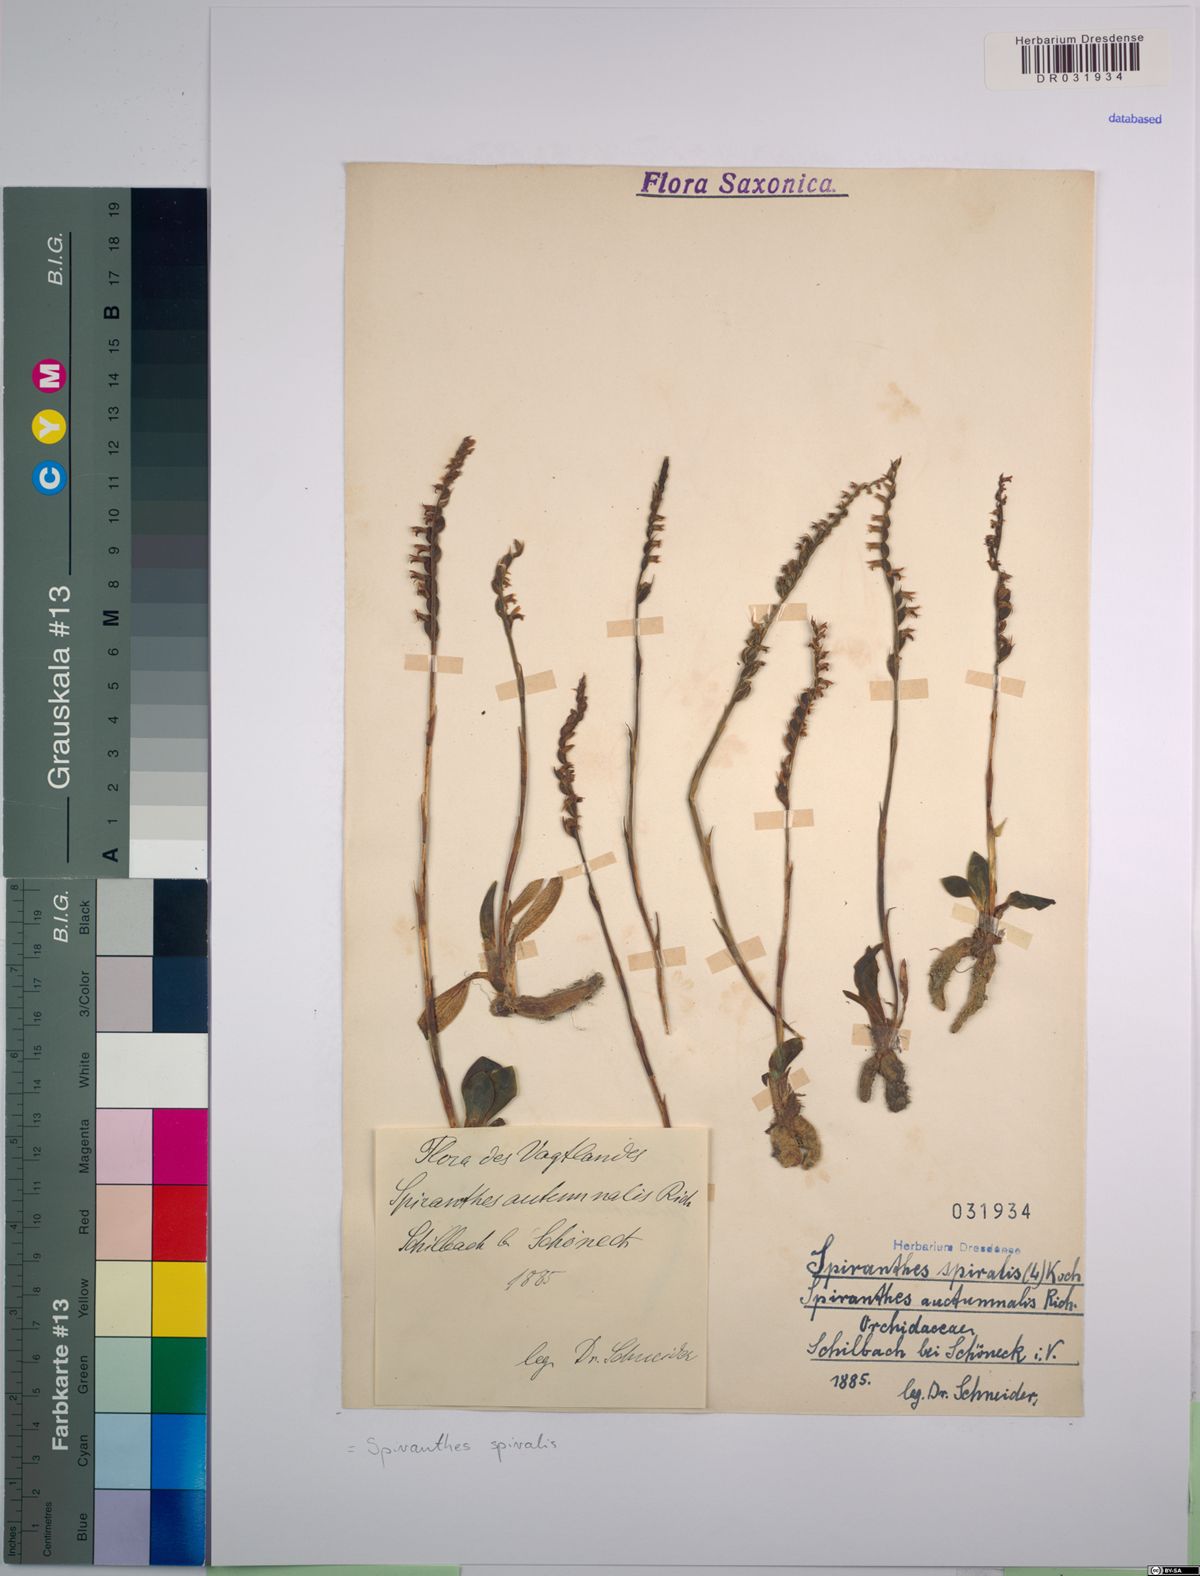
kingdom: Plantae
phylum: Tracheophyta
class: Liliopsida
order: Asparagales
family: Orchidaceae
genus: Spiranthes
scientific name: Spiranthes spiralis
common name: Autumn lady's-tresses
